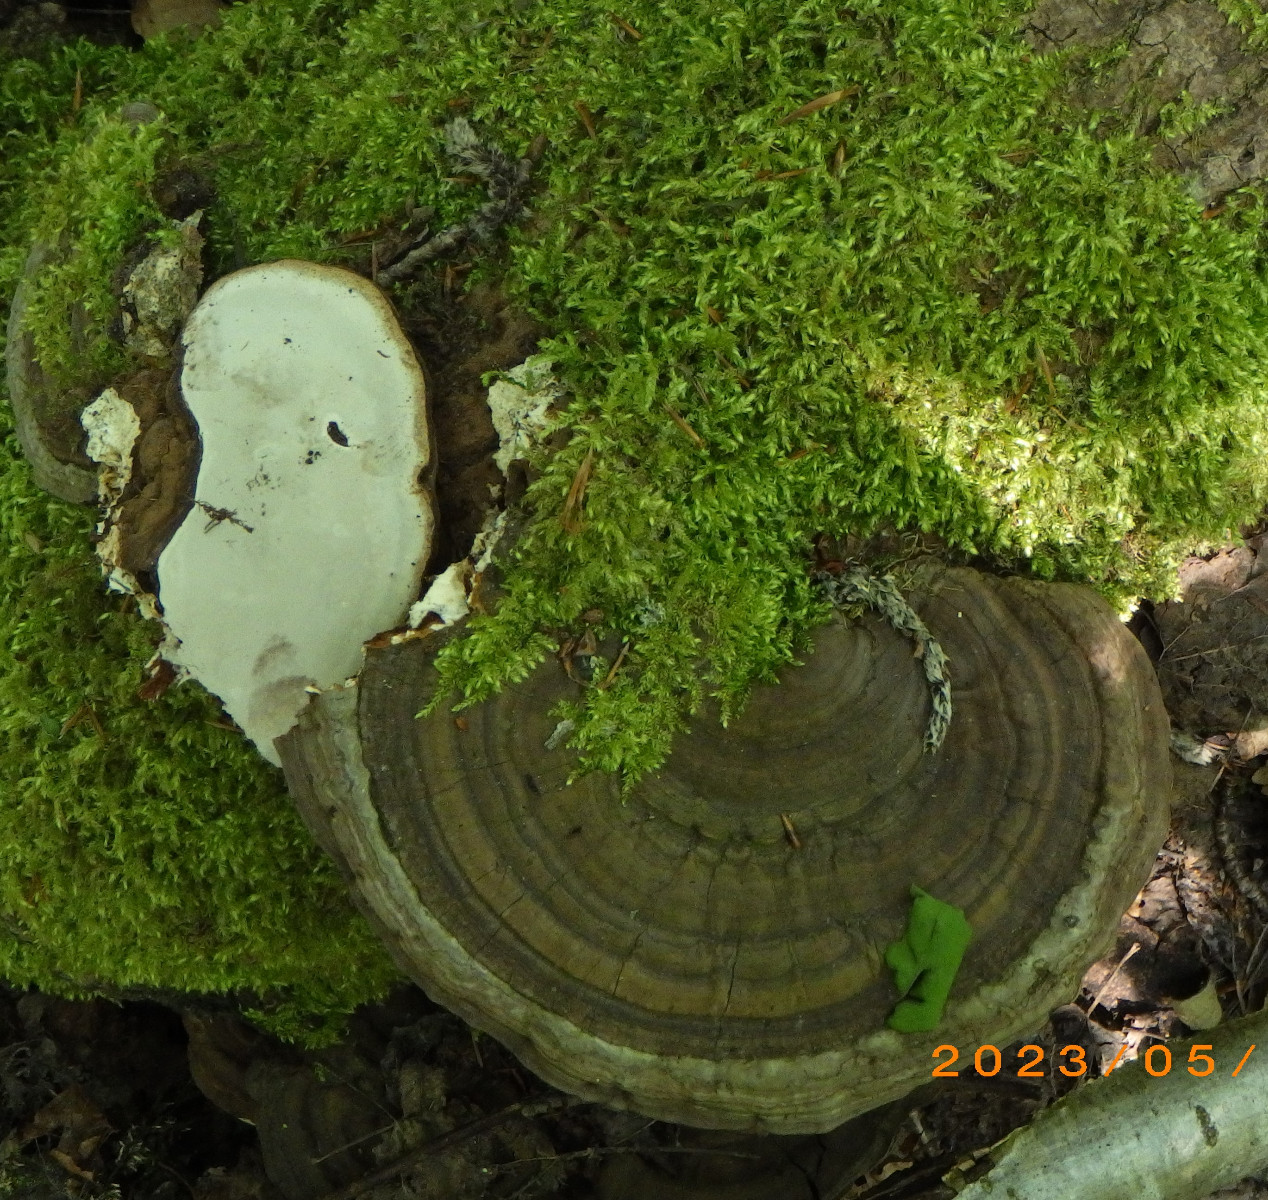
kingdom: Fungi
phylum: Basidiomycota
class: Agaricomycetes
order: Polyporales
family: Polyporaceae
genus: Ganoderma
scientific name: Ganoderma applanatum
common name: flad lakporesvamp
